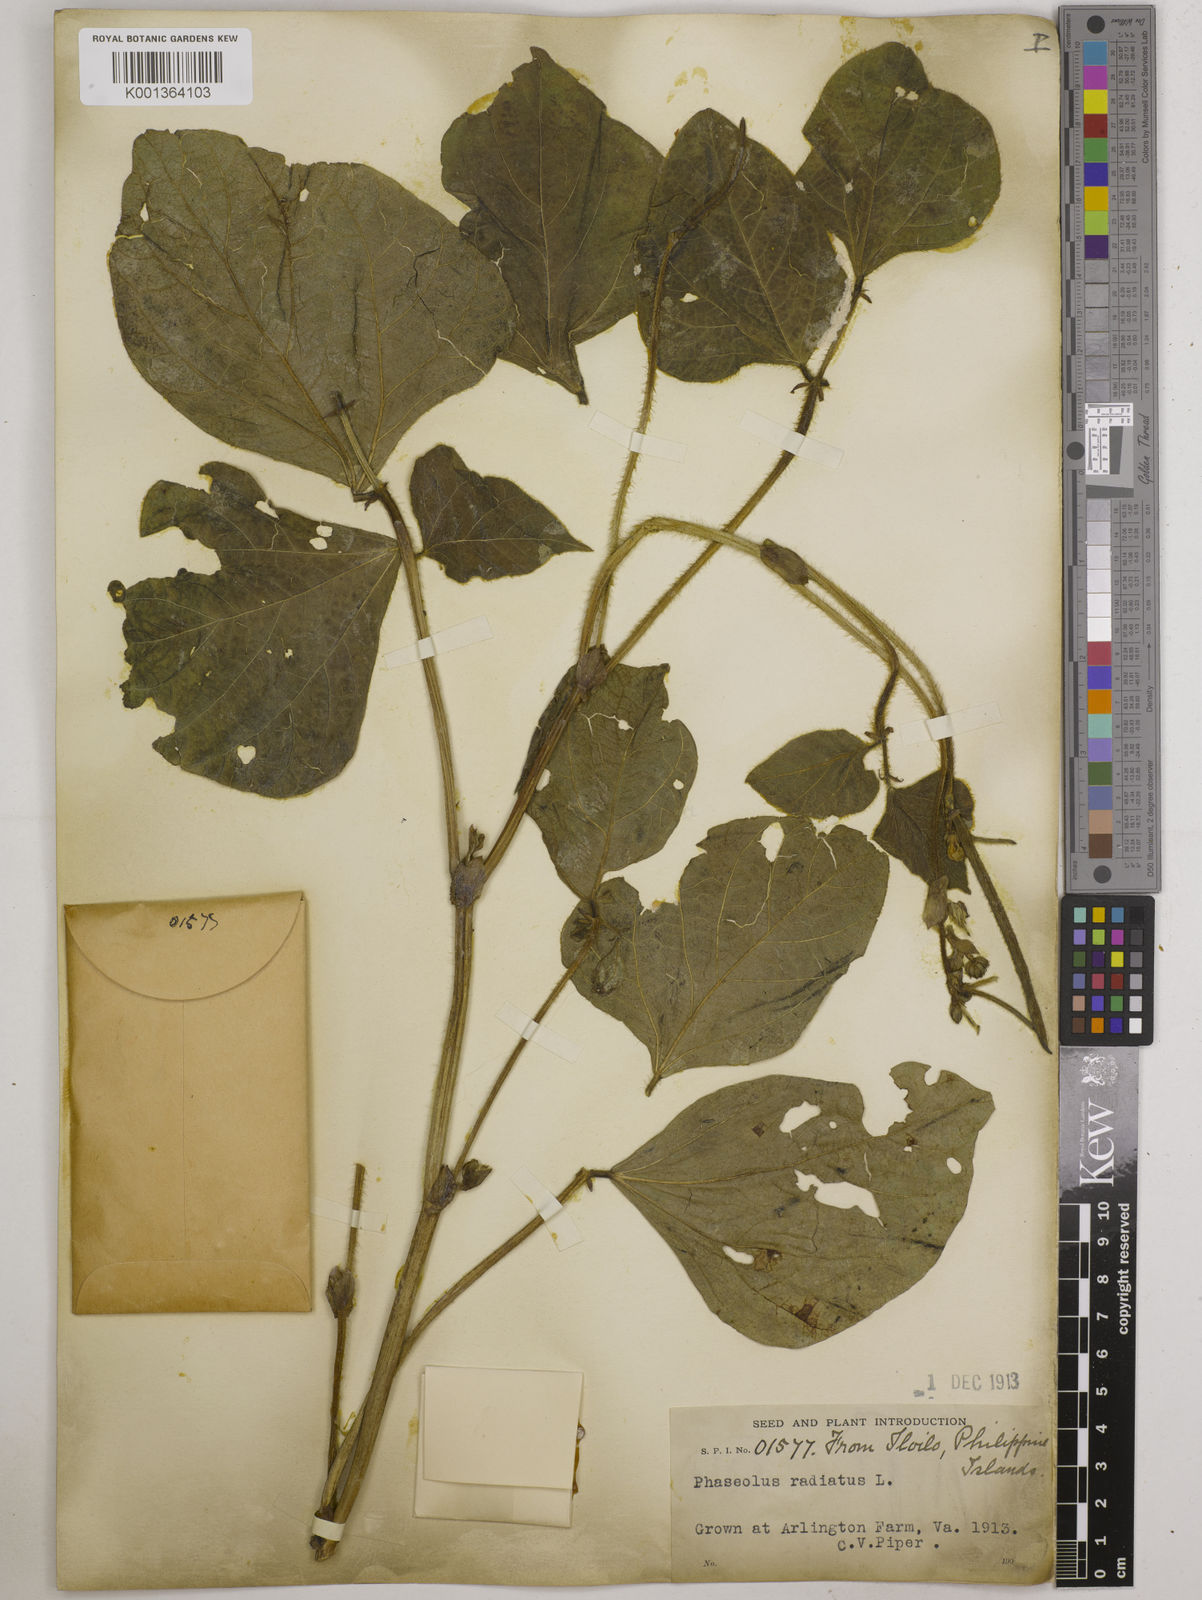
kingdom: Plantae
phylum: Tracheophyta
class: Magnoliopsida
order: Fabales
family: Fabaceae
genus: Vigna
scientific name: Vigna radiata
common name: Mung-bean
